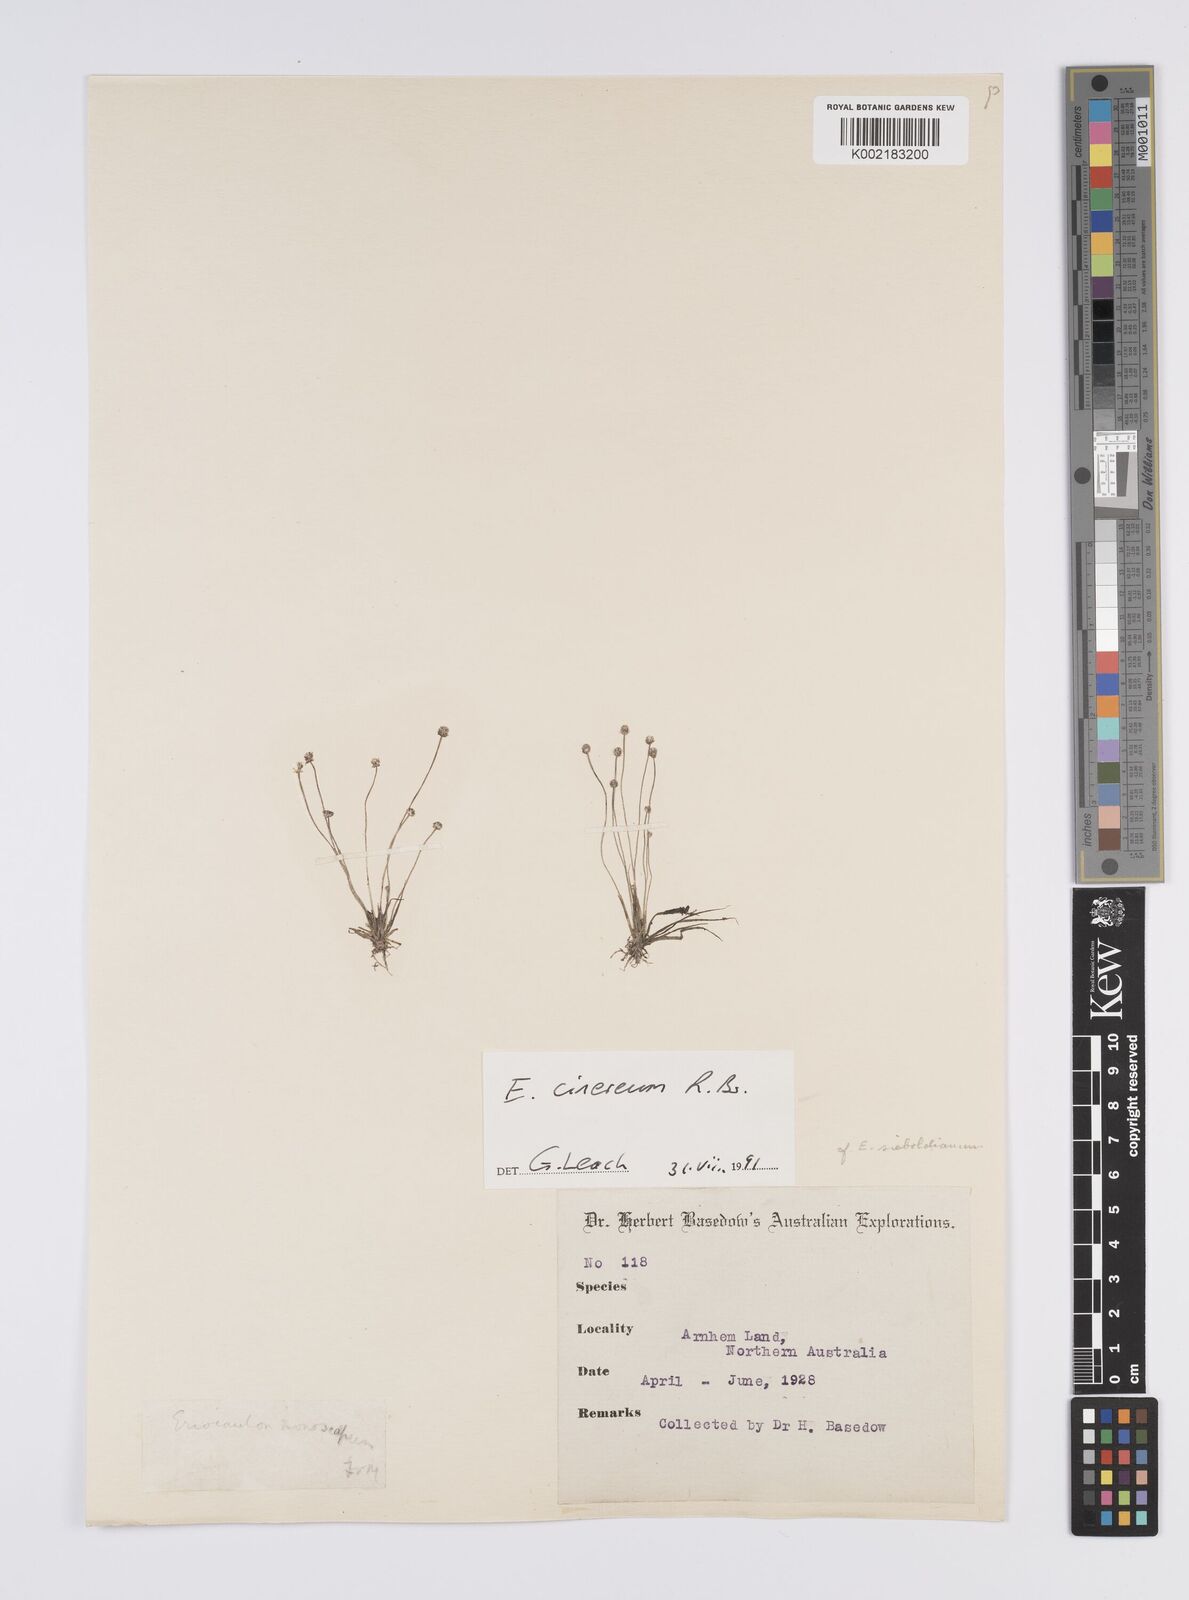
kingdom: Plantae
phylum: Tracheophyta
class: Liliopsida
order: Poales
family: Eriocaulaceae
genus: Eriocaulon
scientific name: Eriocaulon cinereum
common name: Ashy pipewort
